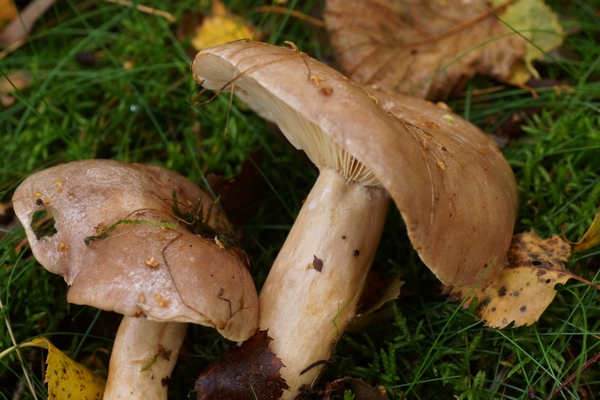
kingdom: Fungi
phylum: Basidiomycota
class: Agaricomycetes
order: Russulales
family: Russulaceae
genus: Lactarius
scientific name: Lactarius trivialis
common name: nordisk mælkehat
